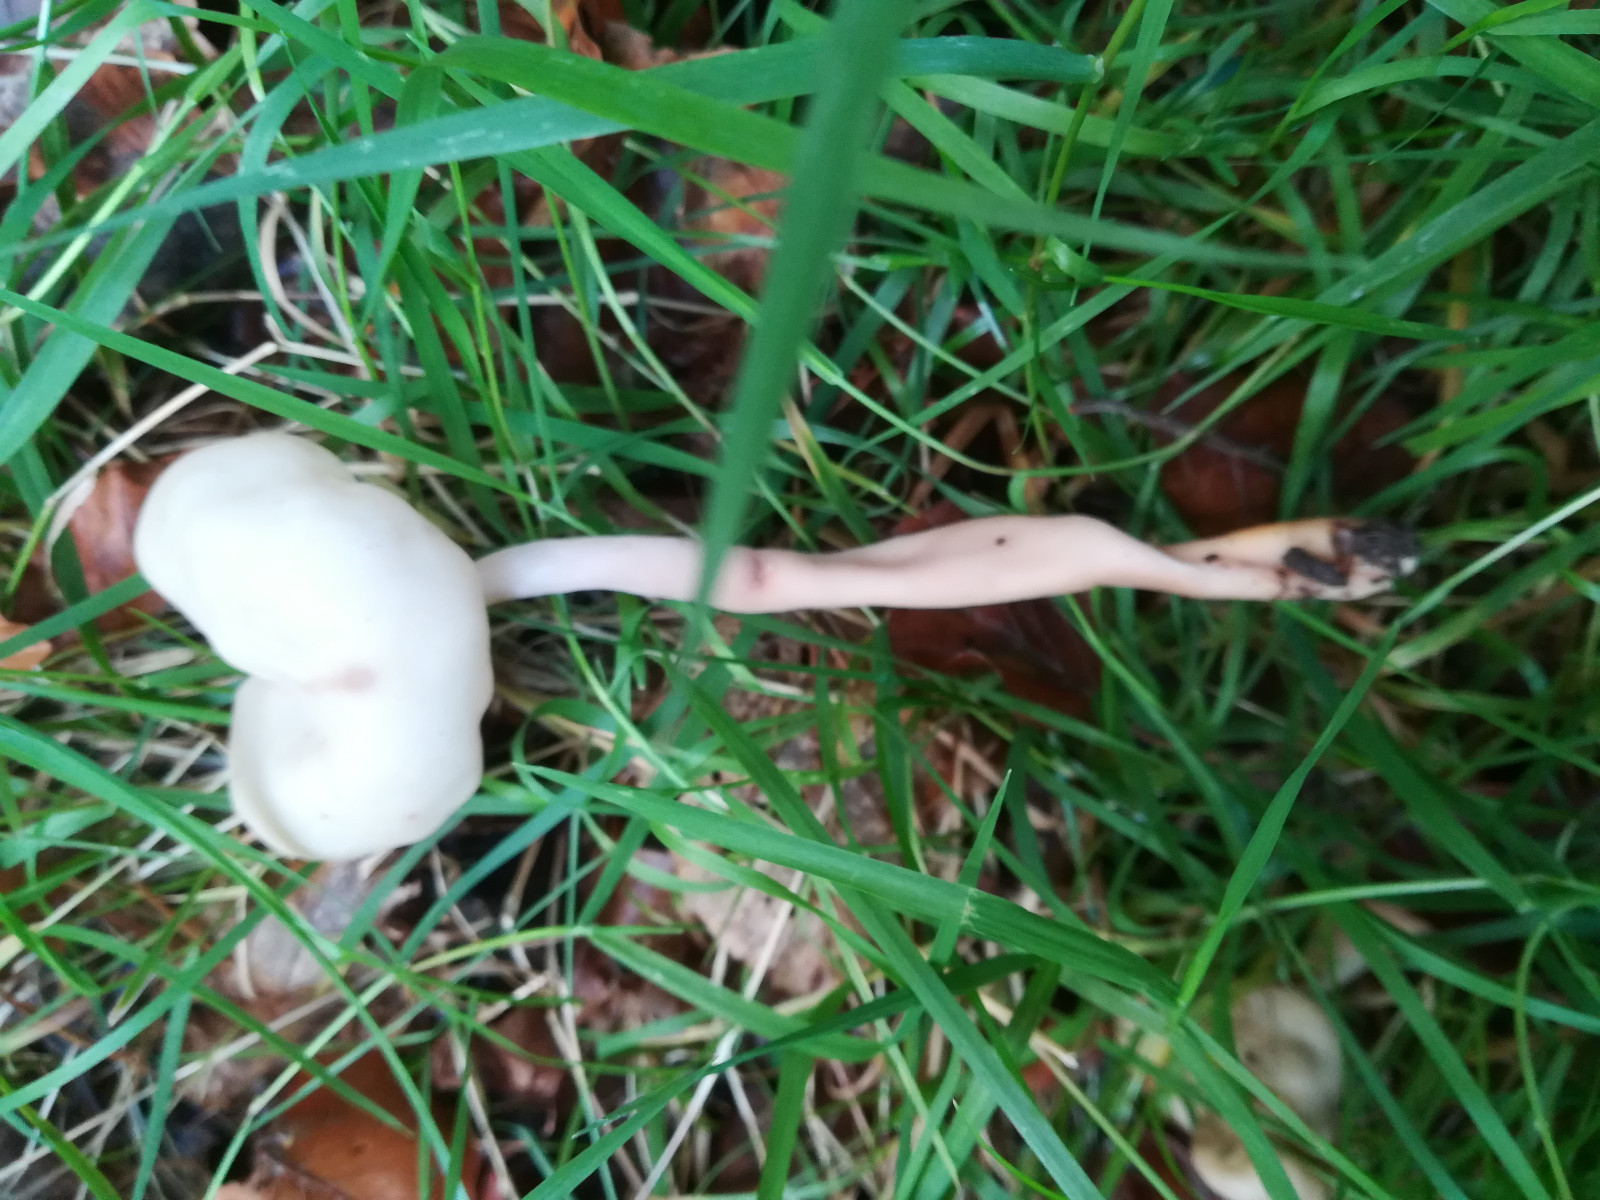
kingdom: Fungi
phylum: Ascomycota
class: Pezizomycetes
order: Pezizales
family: Helvellaceae
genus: Helvella
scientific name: Helvella elastica
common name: elastik-foldhat
